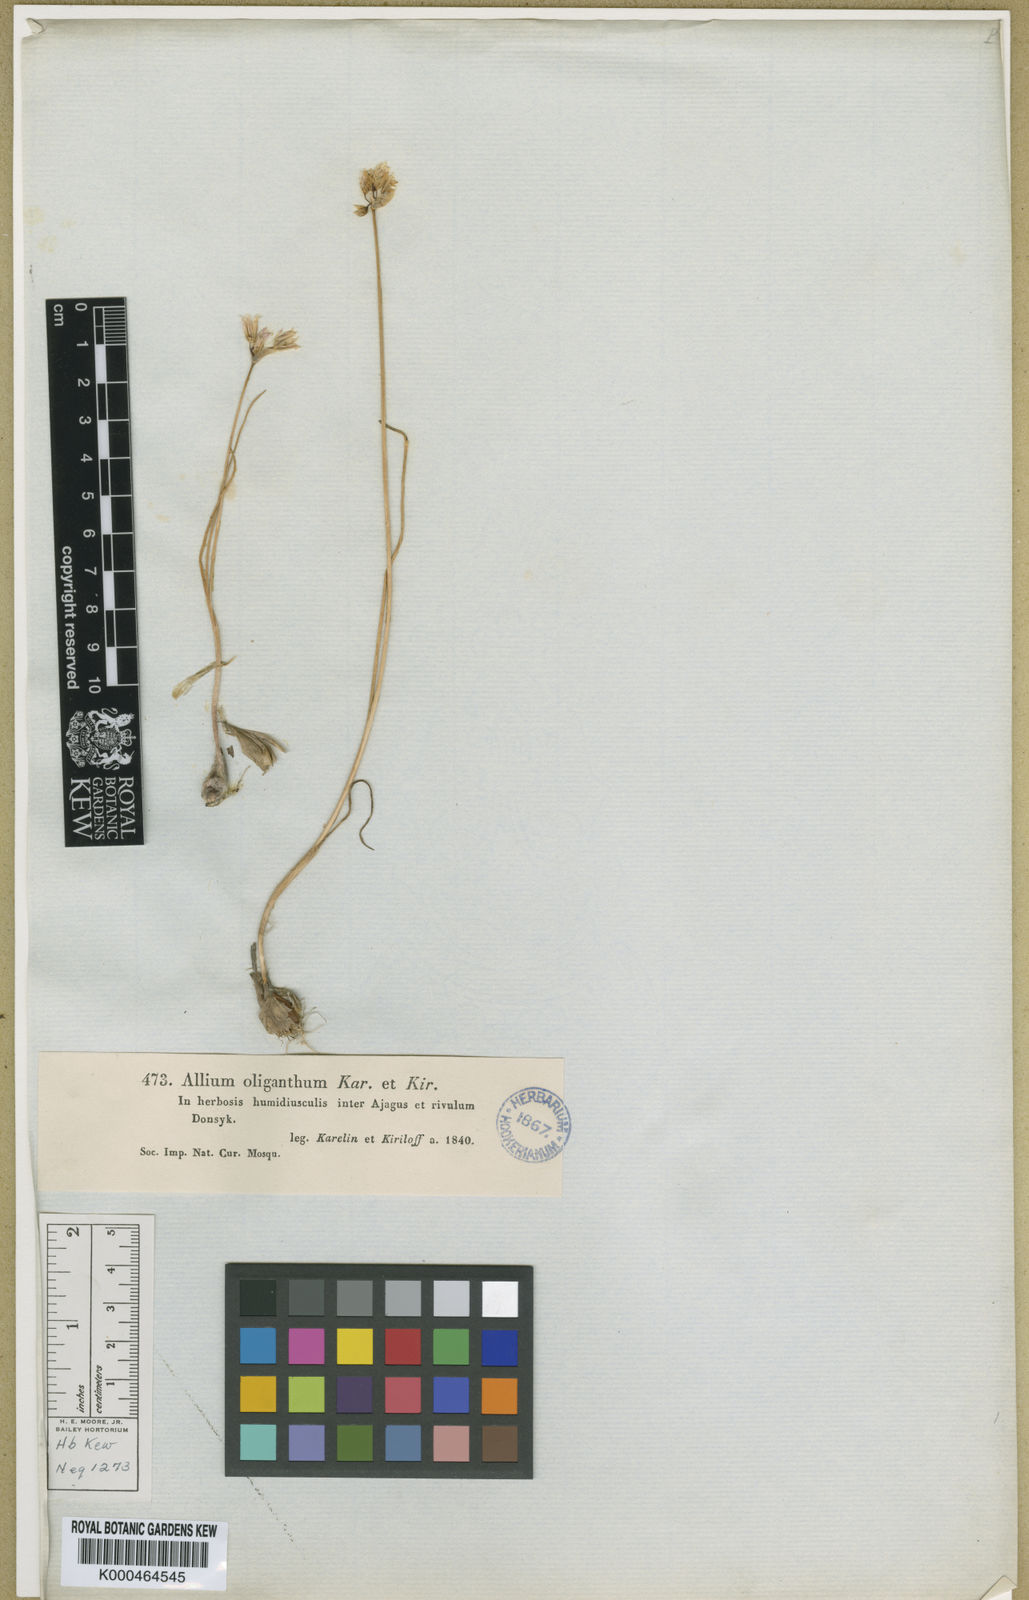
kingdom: Plantae
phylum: Tracheophyta
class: Liliopsida
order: Asparagales
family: Amaryllidaceae
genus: Allium
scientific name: Allium oliganthum
